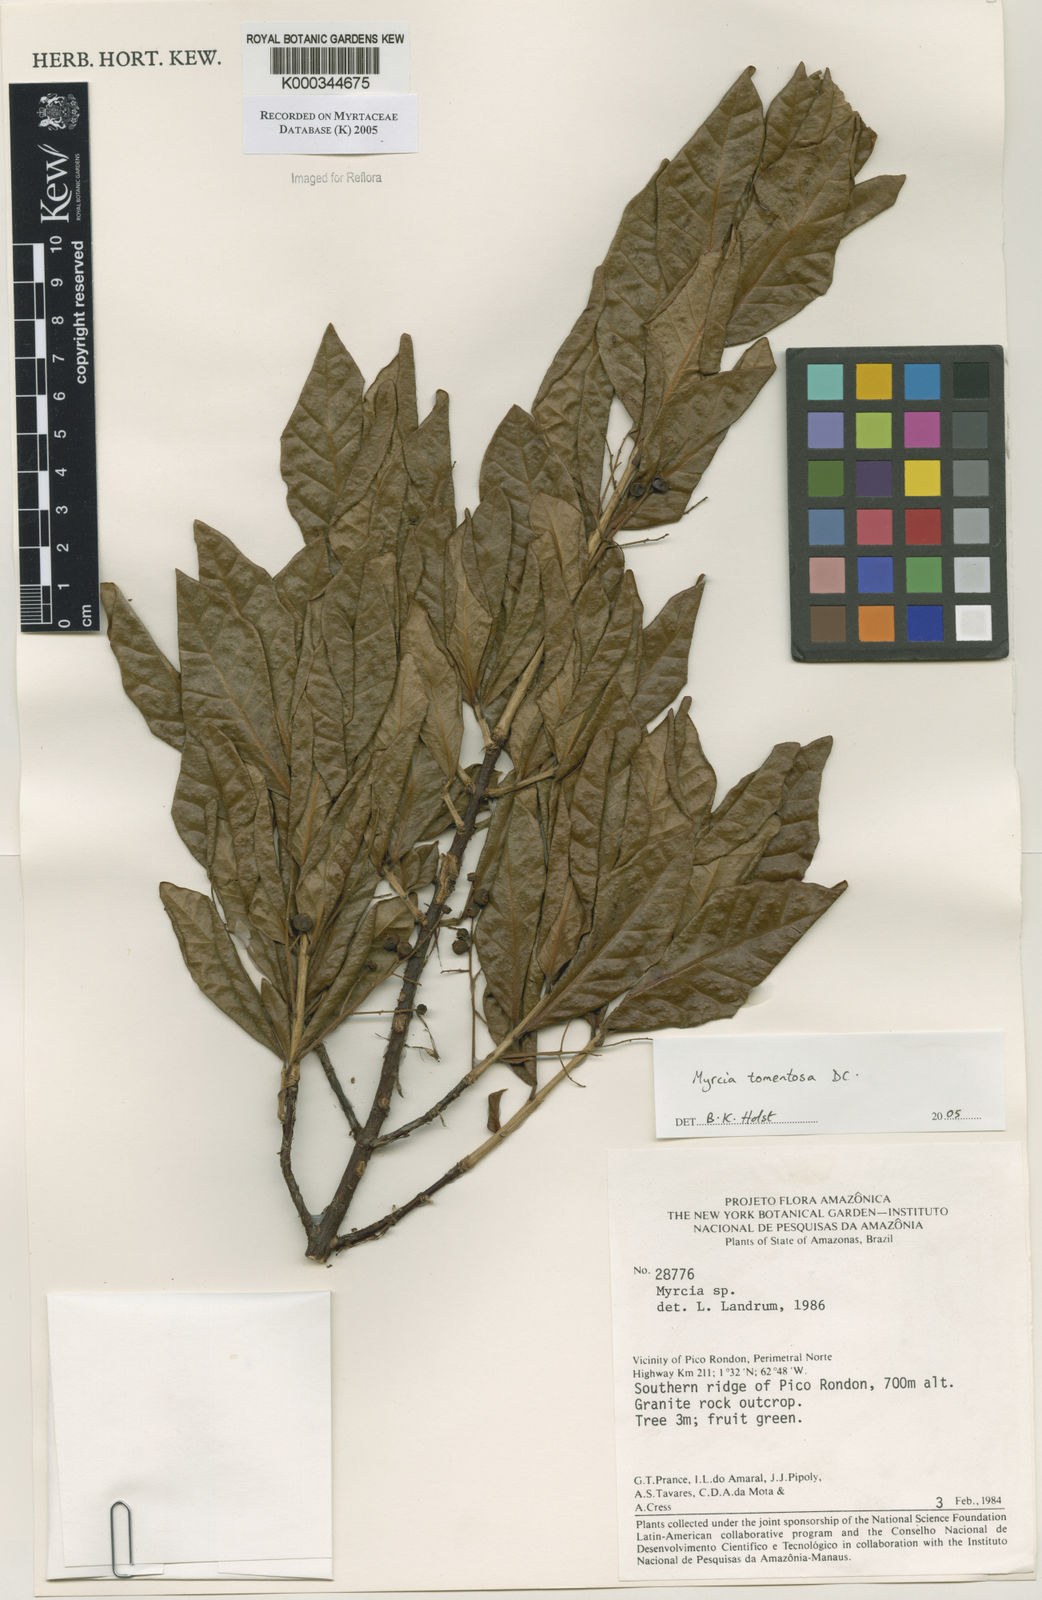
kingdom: Plantae
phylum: Tracheophyta
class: Magnoliopsida
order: Myrtales
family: Myrtaceae
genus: Myrcia
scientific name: Myrcia tomentosa
